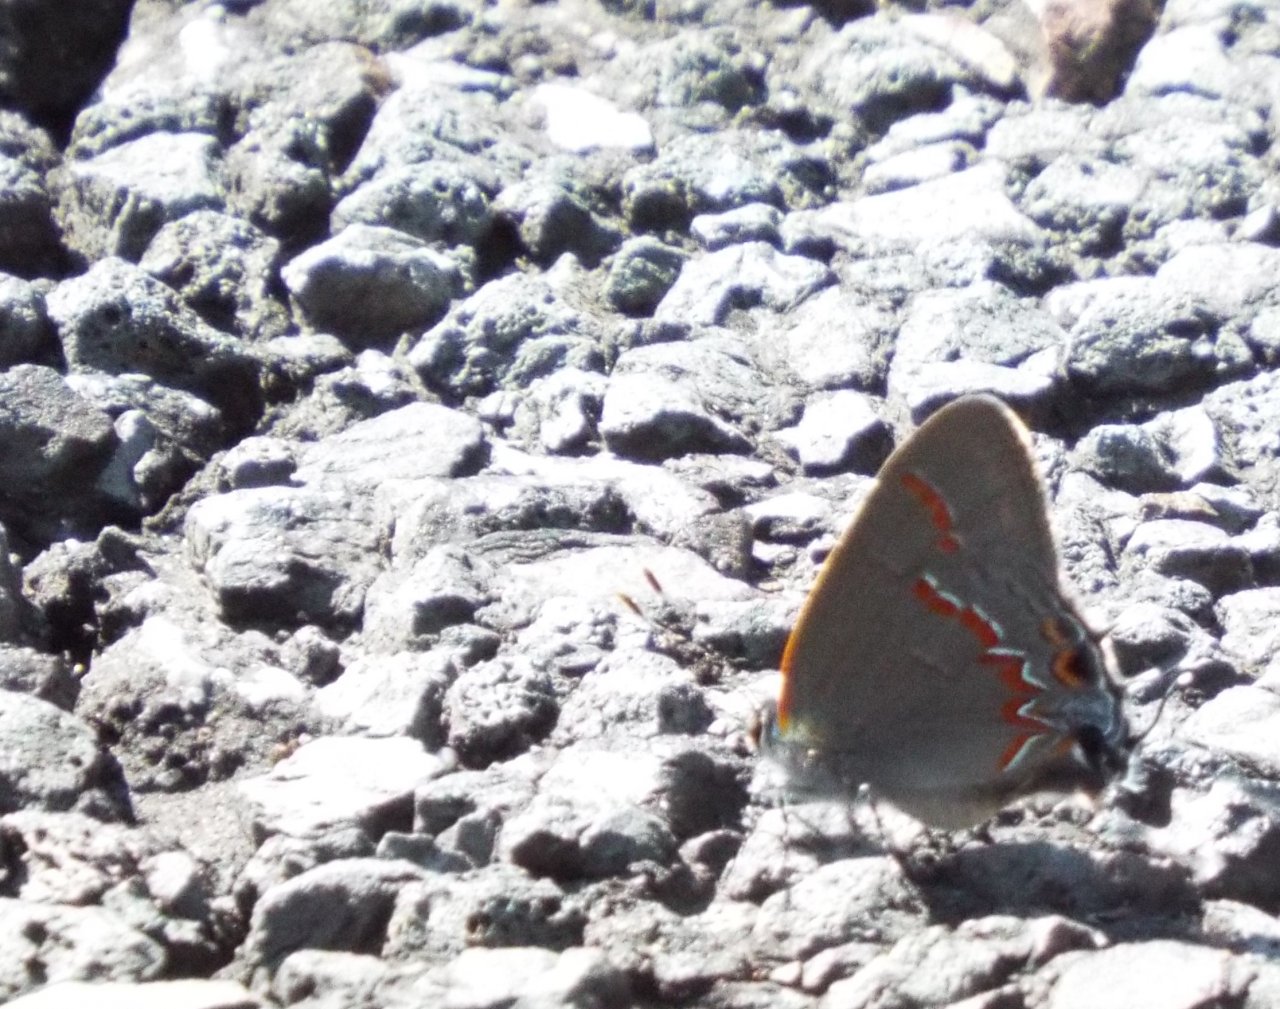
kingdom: Animalia
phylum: Arthropoda
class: Insecta
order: Lepidoptera
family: Lycaenidae
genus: Calycopis
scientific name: Calycopis cecrops
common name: Red-banded Hairstreak
